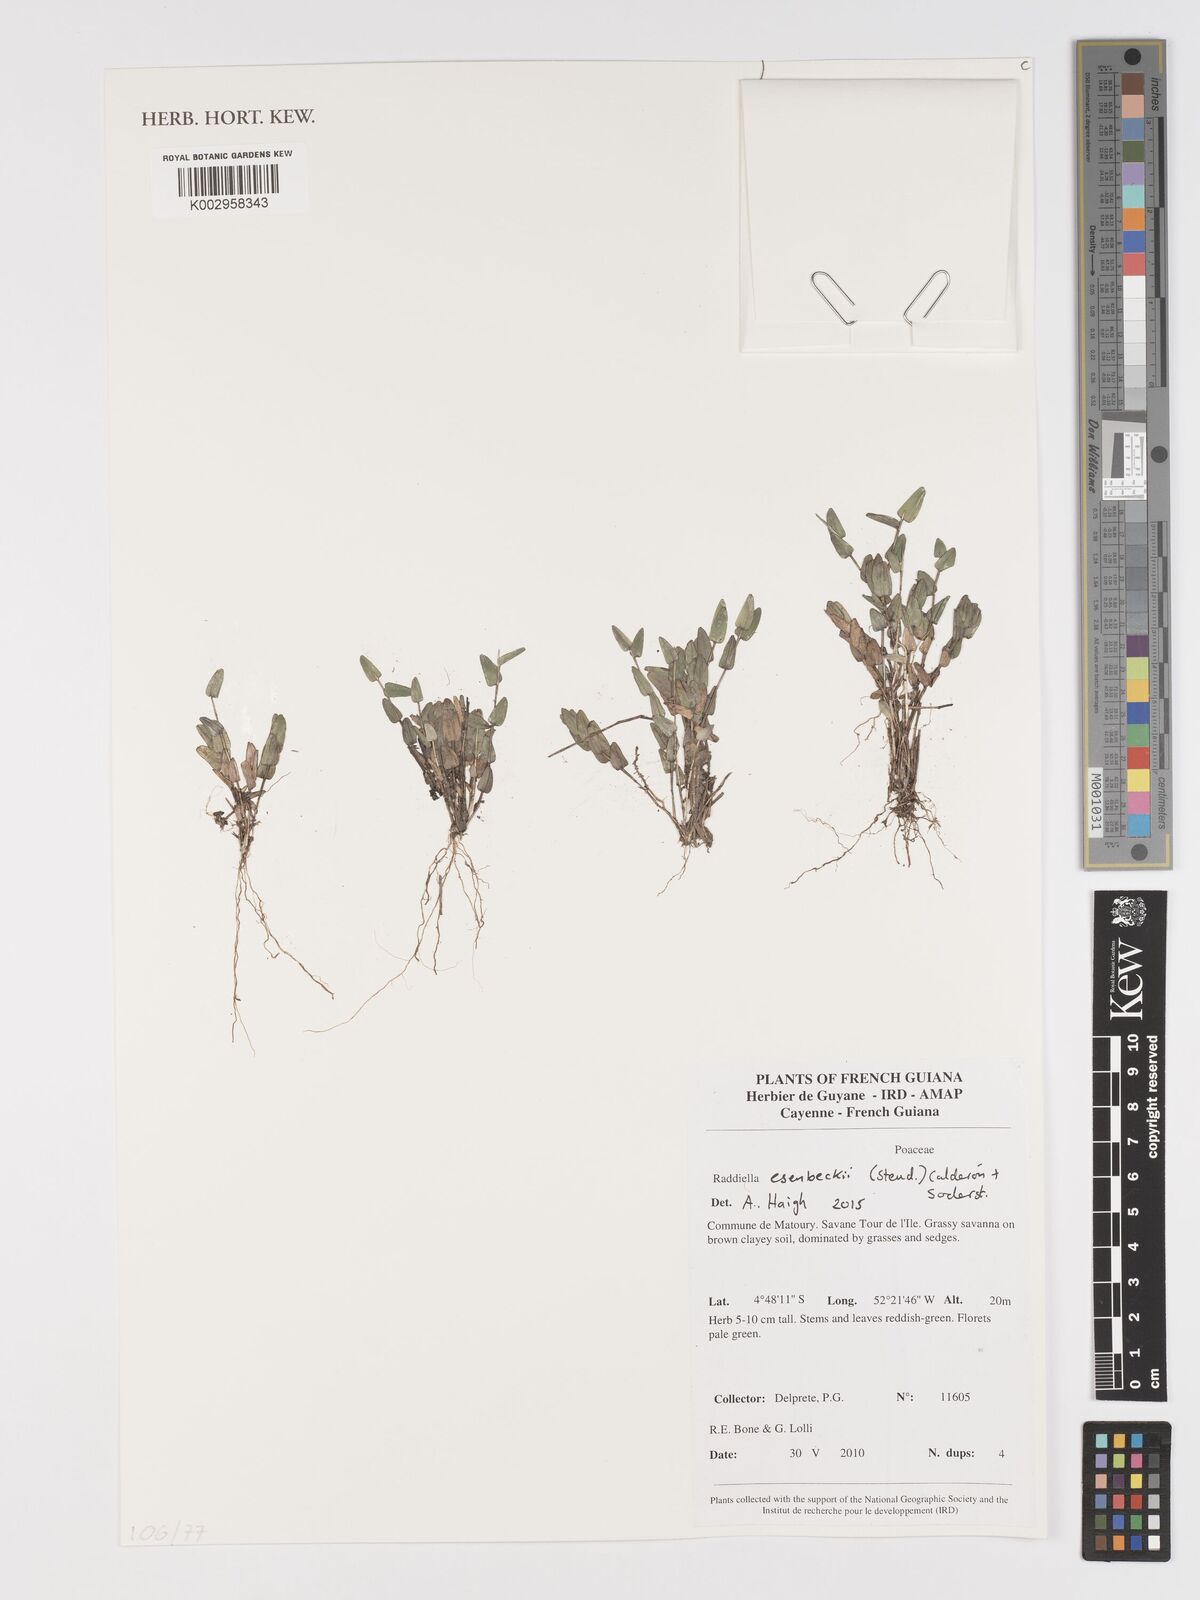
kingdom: Plantae
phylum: Tracheophyta
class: Liliopsida
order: Poales
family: Poaceae
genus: Raddiella
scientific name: Raddiella esenbeckii
